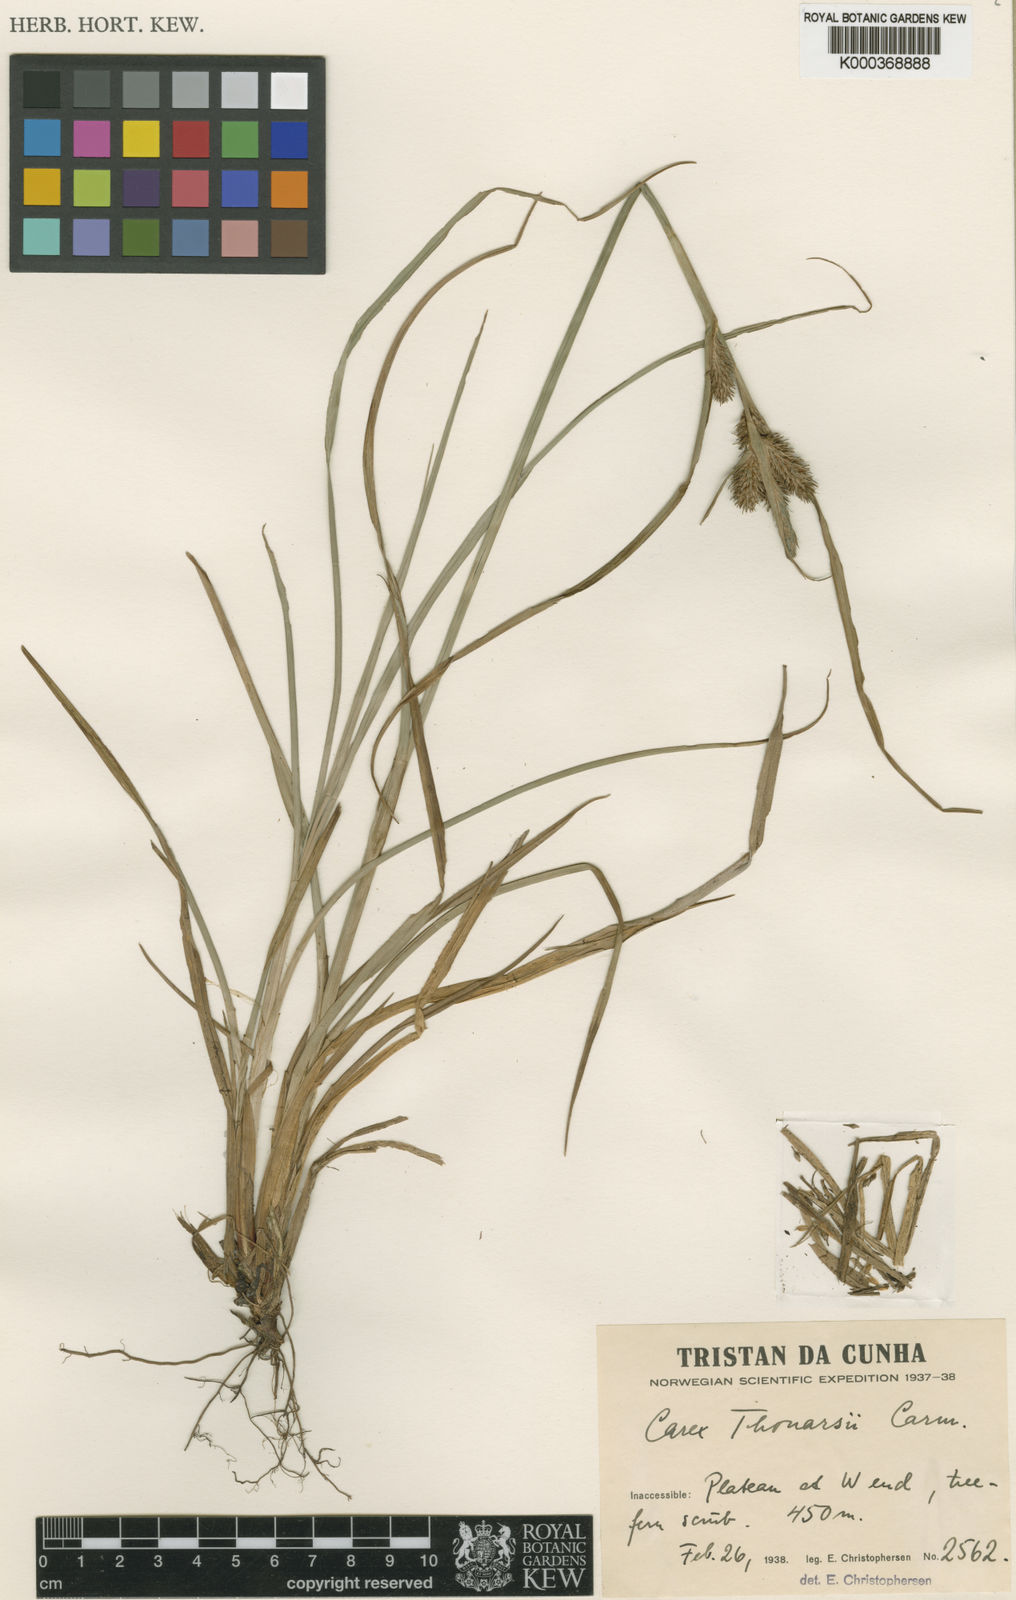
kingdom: Plantae
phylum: Tracheophyta
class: Liliopsida
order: Poales
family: Cyperaceae
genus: Carex
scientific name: Carex thouarsii
